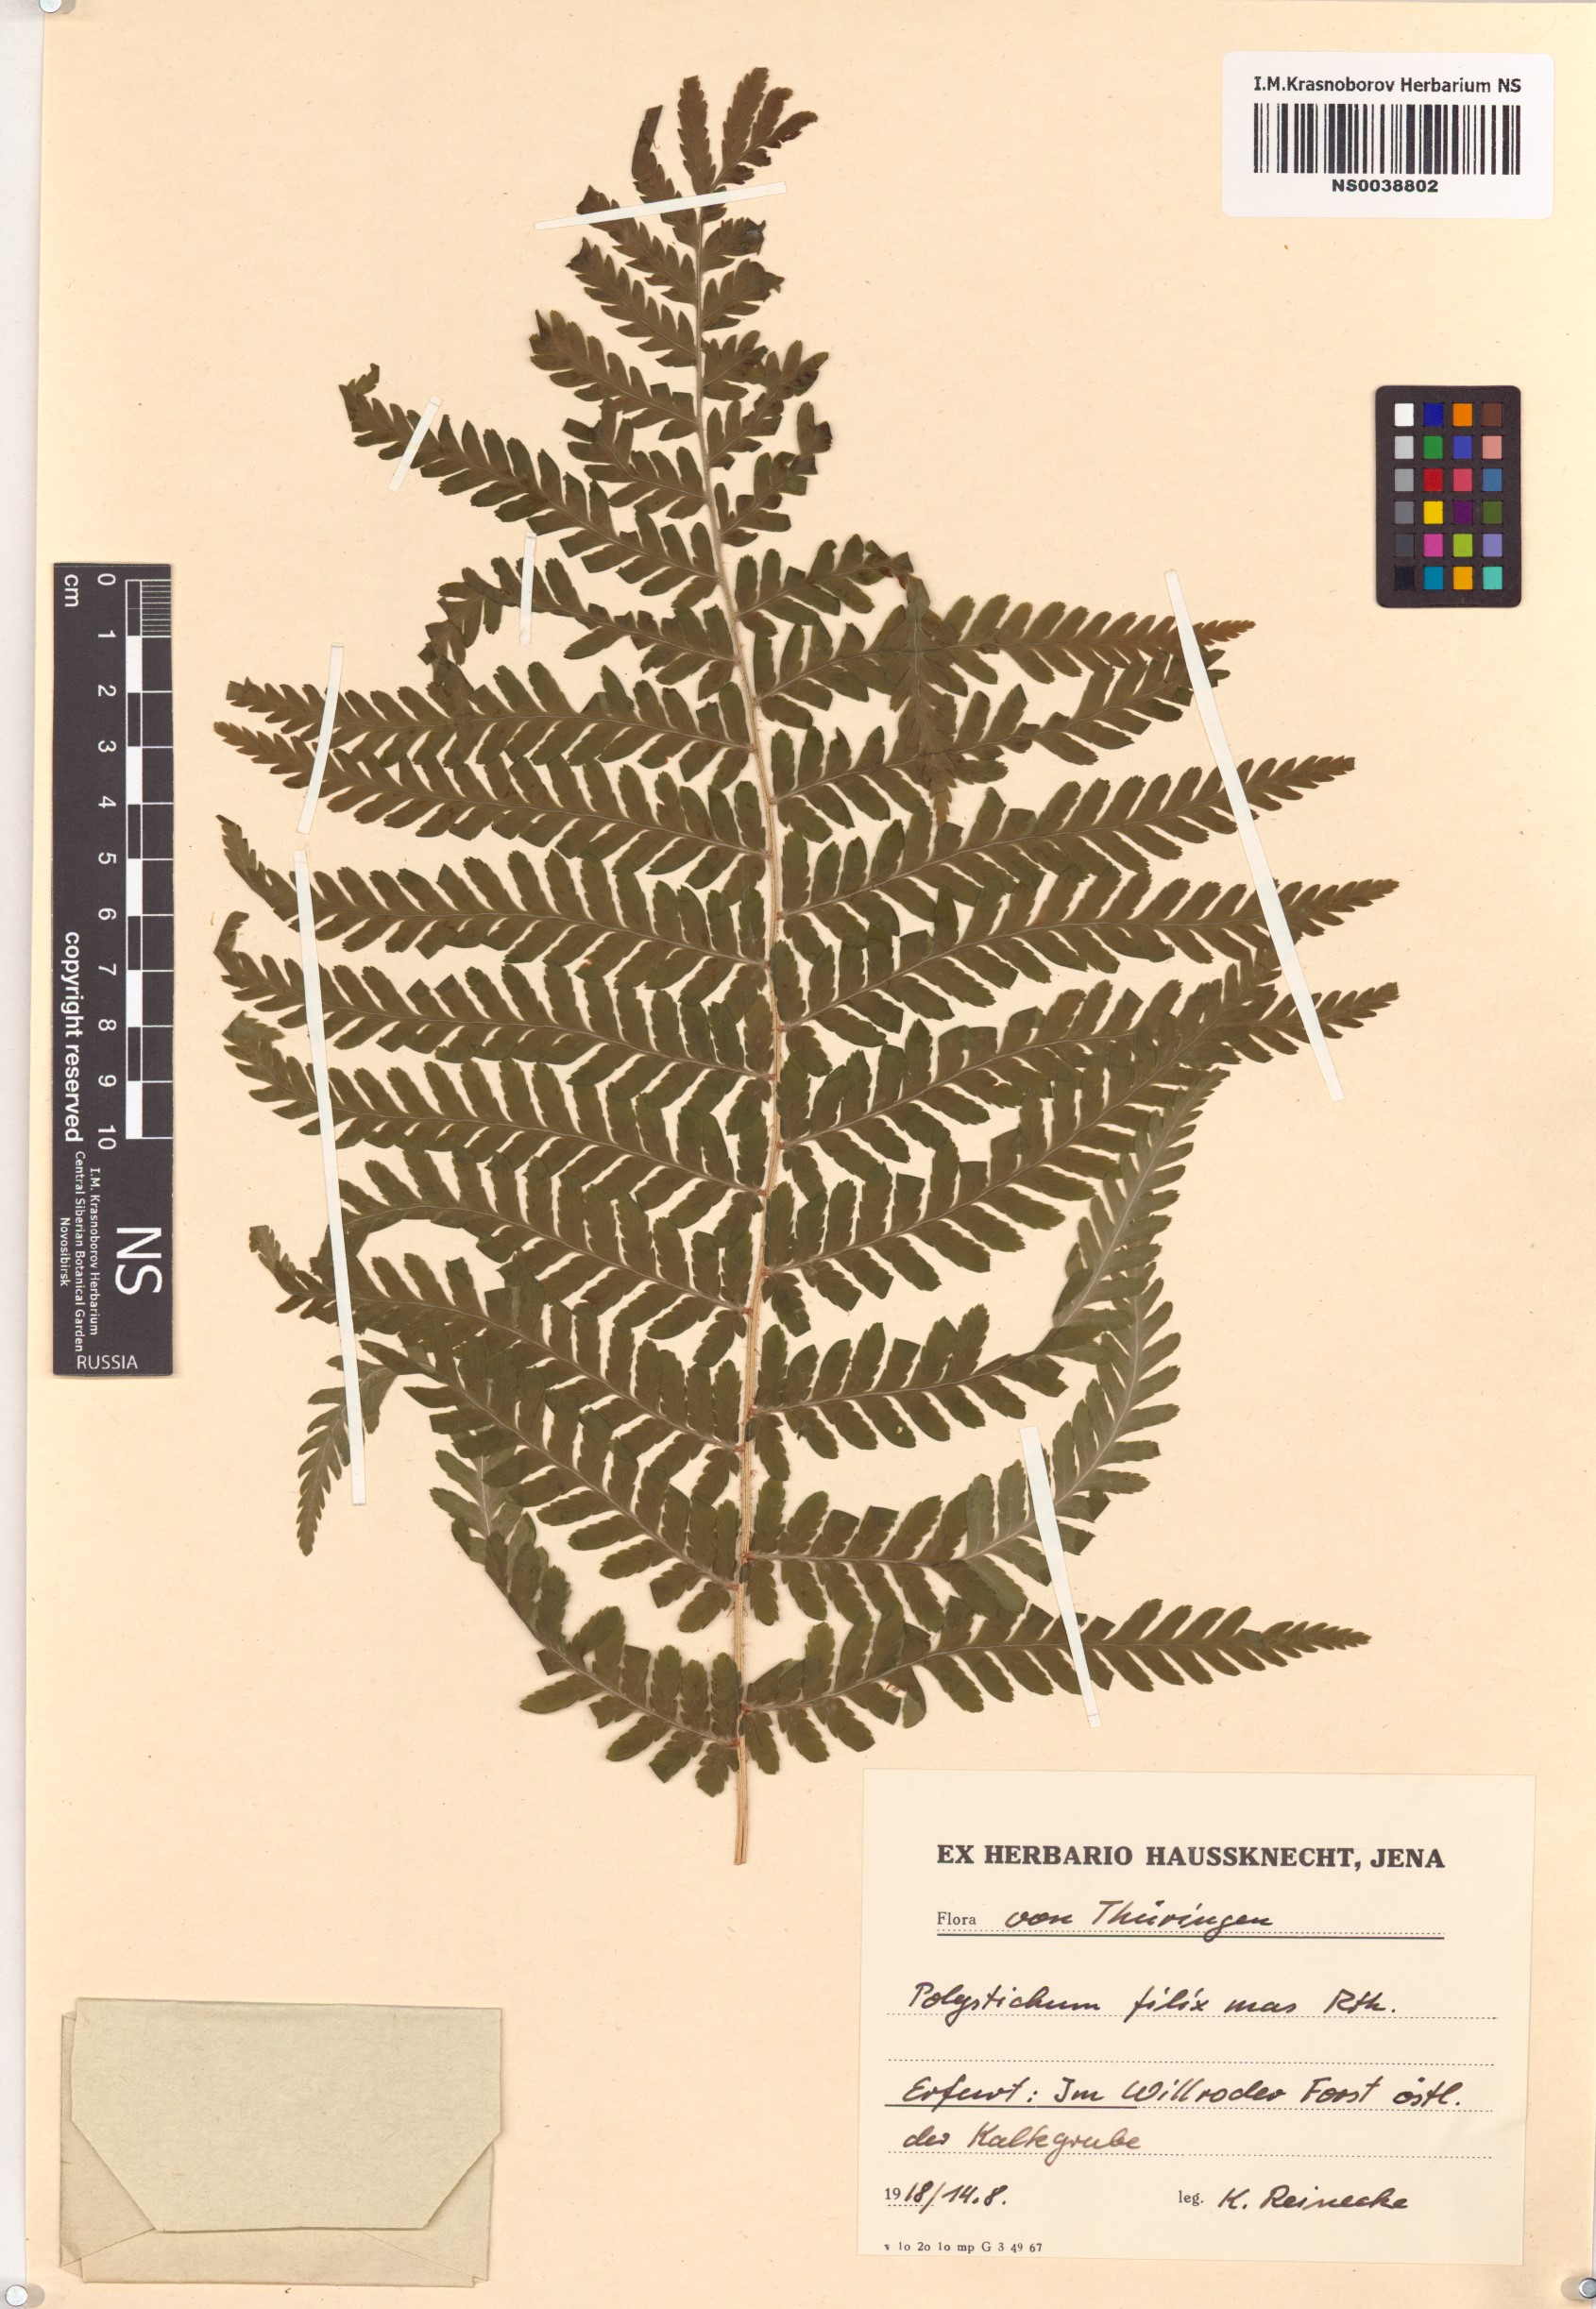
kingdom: Plantae
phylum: Tracheophyta
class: Polypodiopsida
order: Polypodiales
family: Dryopteridaceae
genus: Dryopteris
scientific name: Dryopteris filix-mas
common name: Male fern
